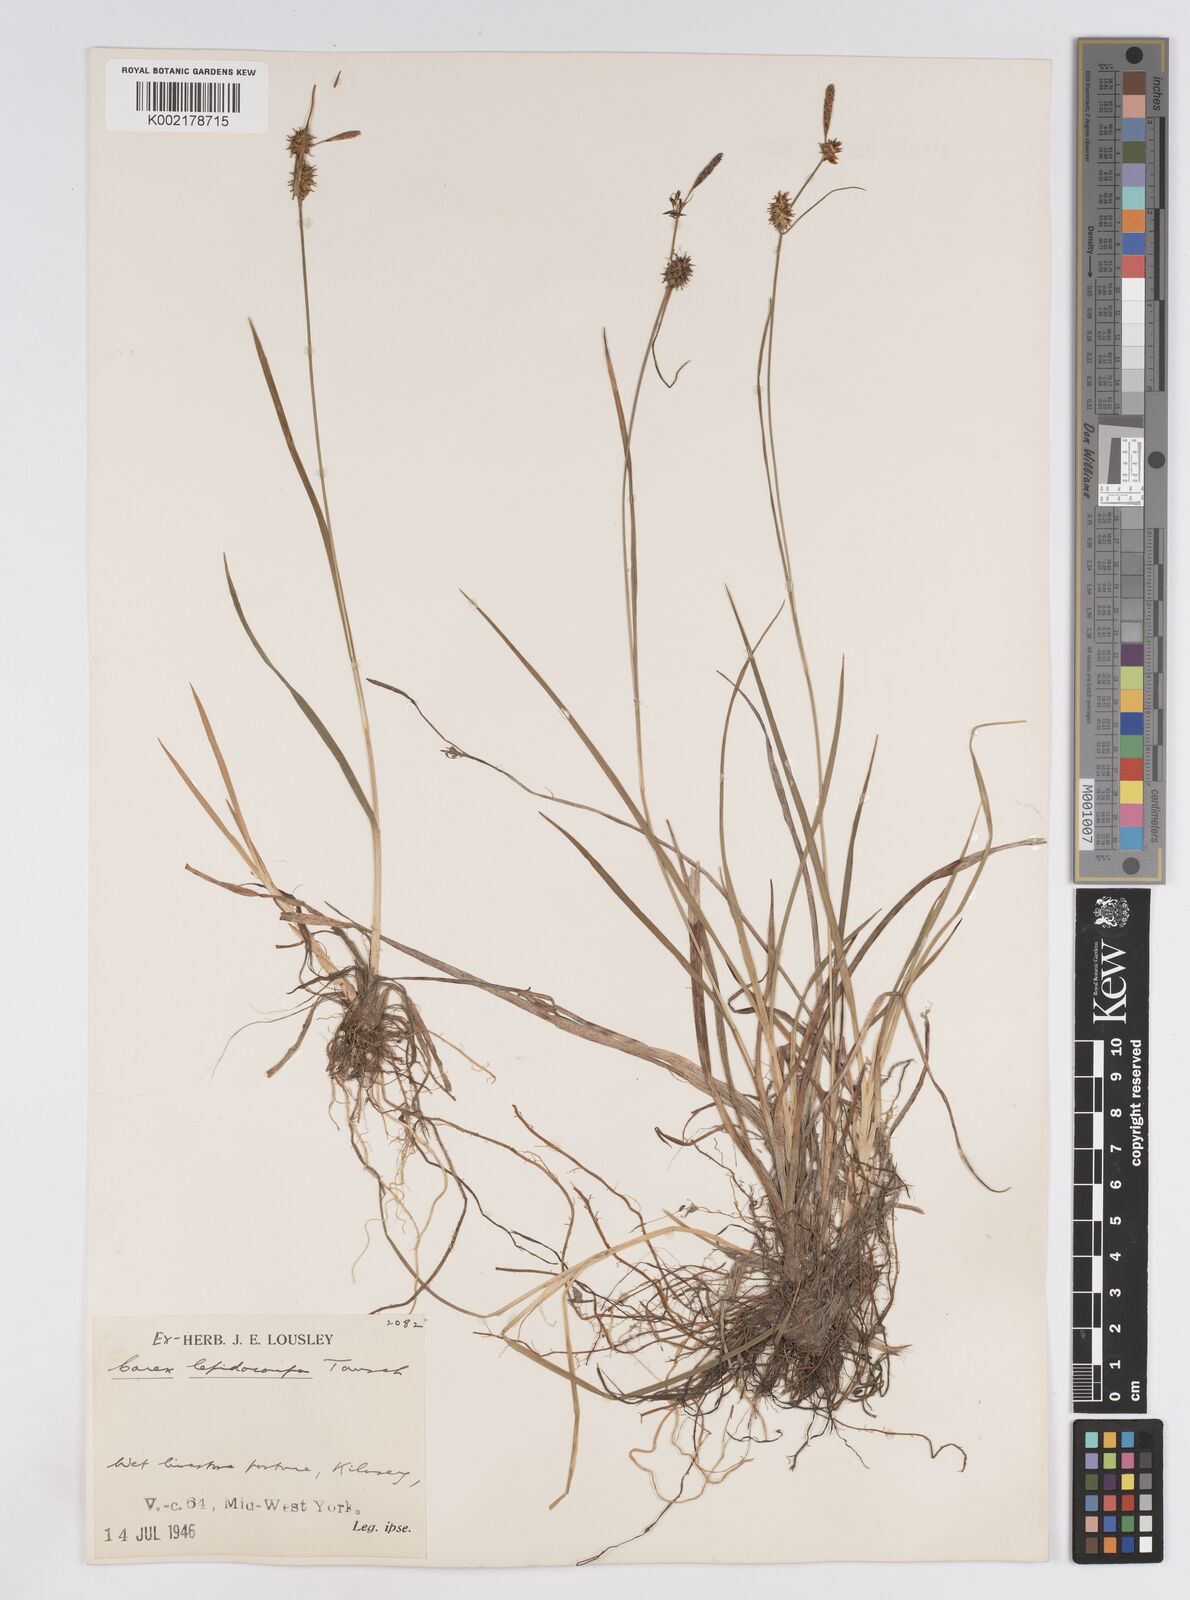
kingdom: Plantae
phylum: Tracheophyta
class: Liliopsida
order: Poales
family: Cyperaceae
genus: Carex
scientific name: Carex lepidocarpa
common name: Long-stalked yellow-sedge
